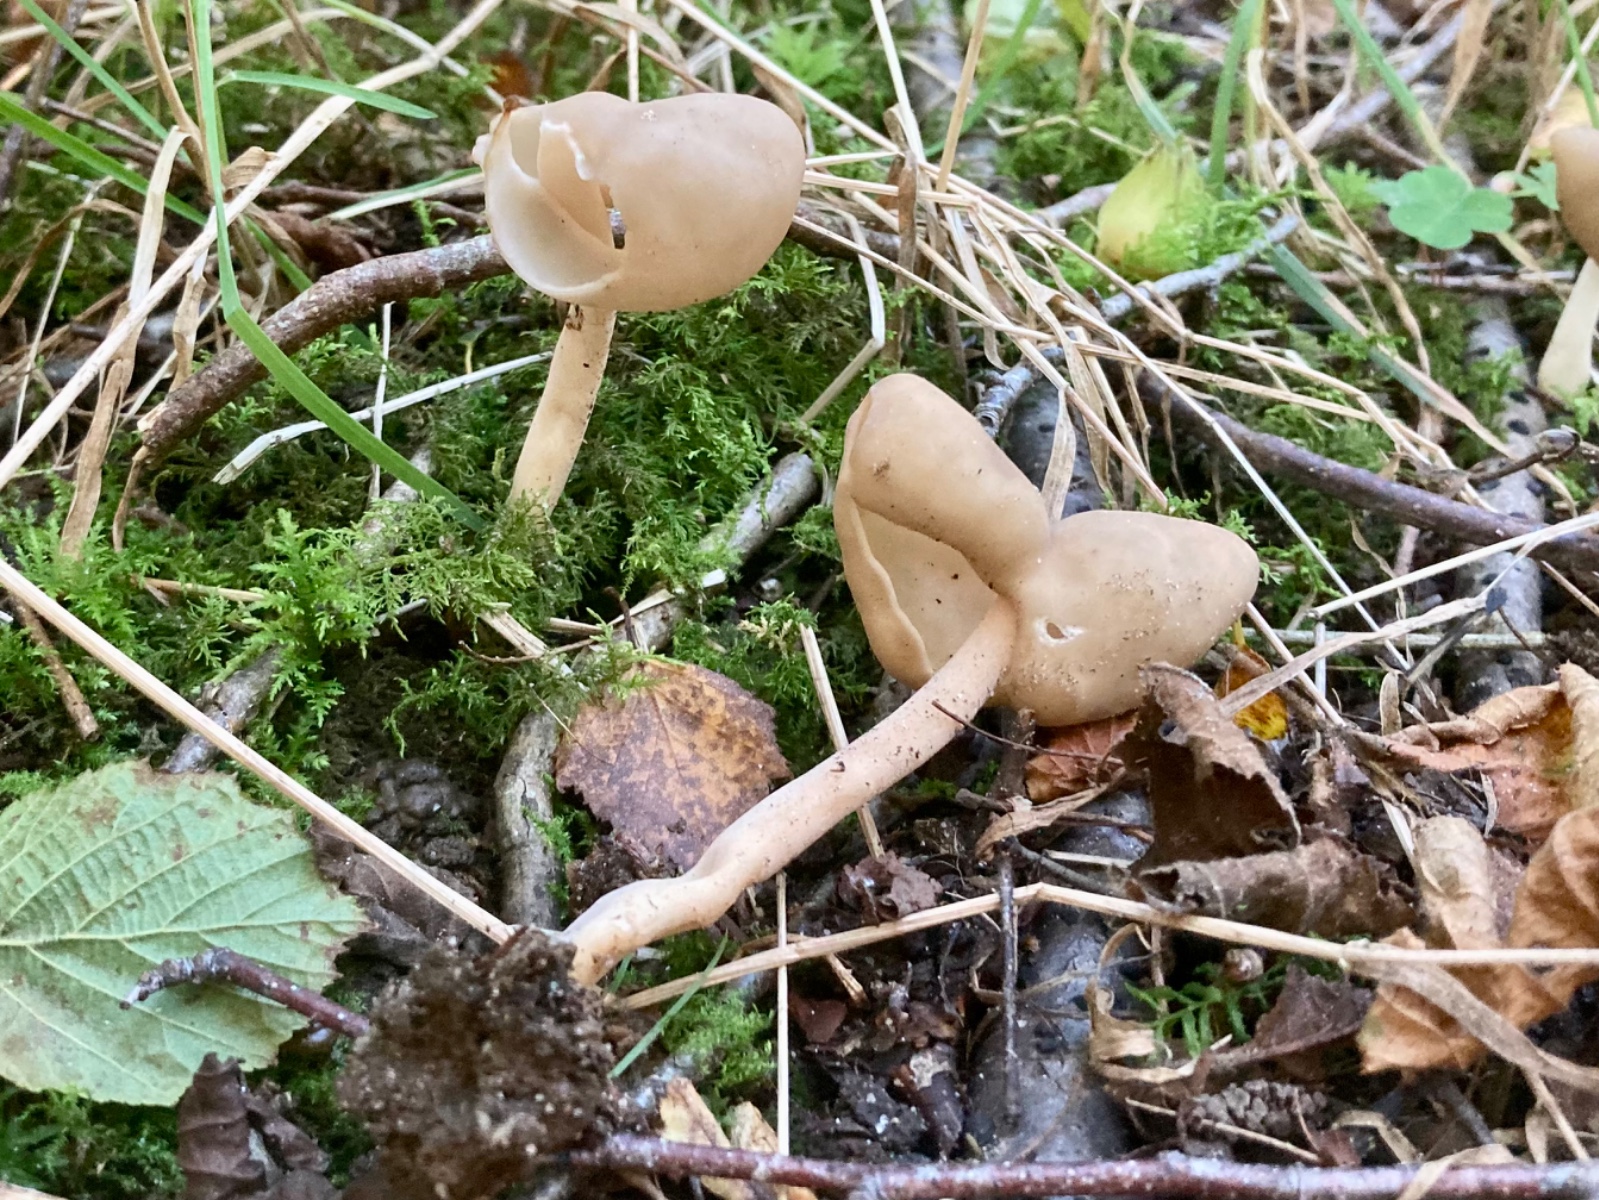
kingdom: Fungi
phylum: Ascomycota
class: Pezizomycetes
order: Pezizales
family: Helvellaceae
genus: Helvella
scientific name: Helvella elastica
